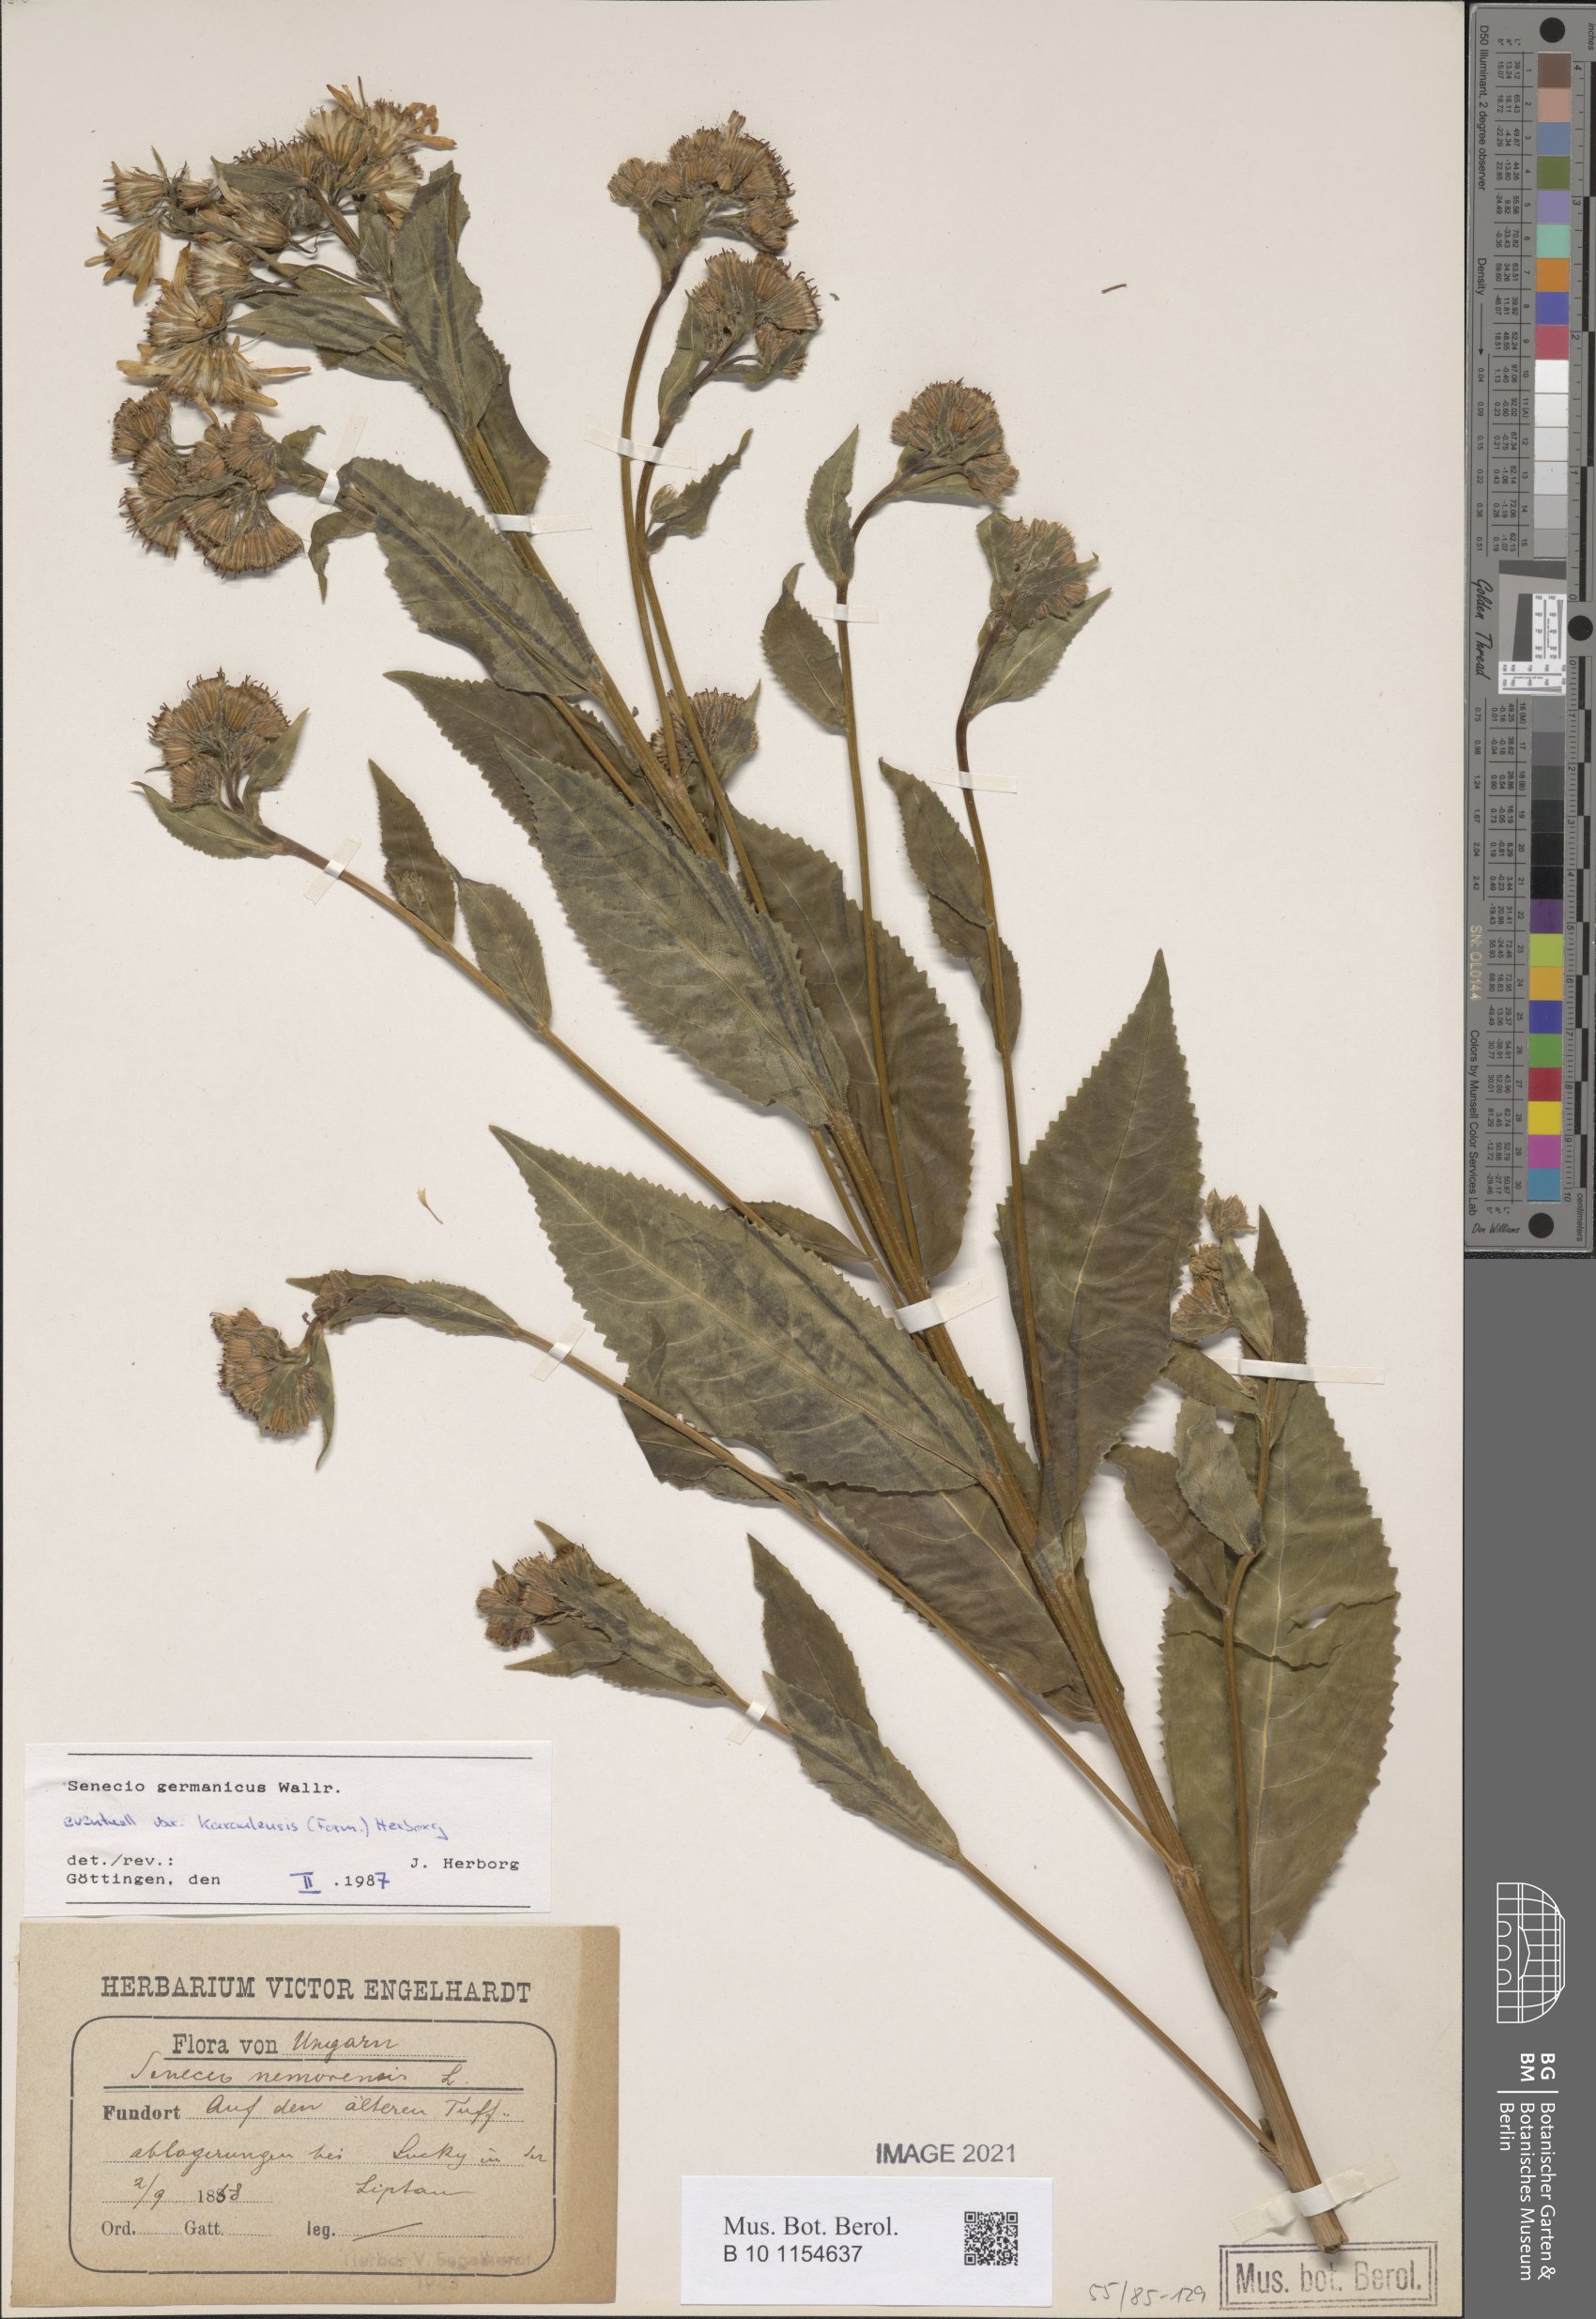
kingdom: Plantae
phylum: Tracheophyta
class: Magnoliopsida
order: Asterales
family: Asteraceae
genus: Senecio
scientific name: Senecio germanicus
